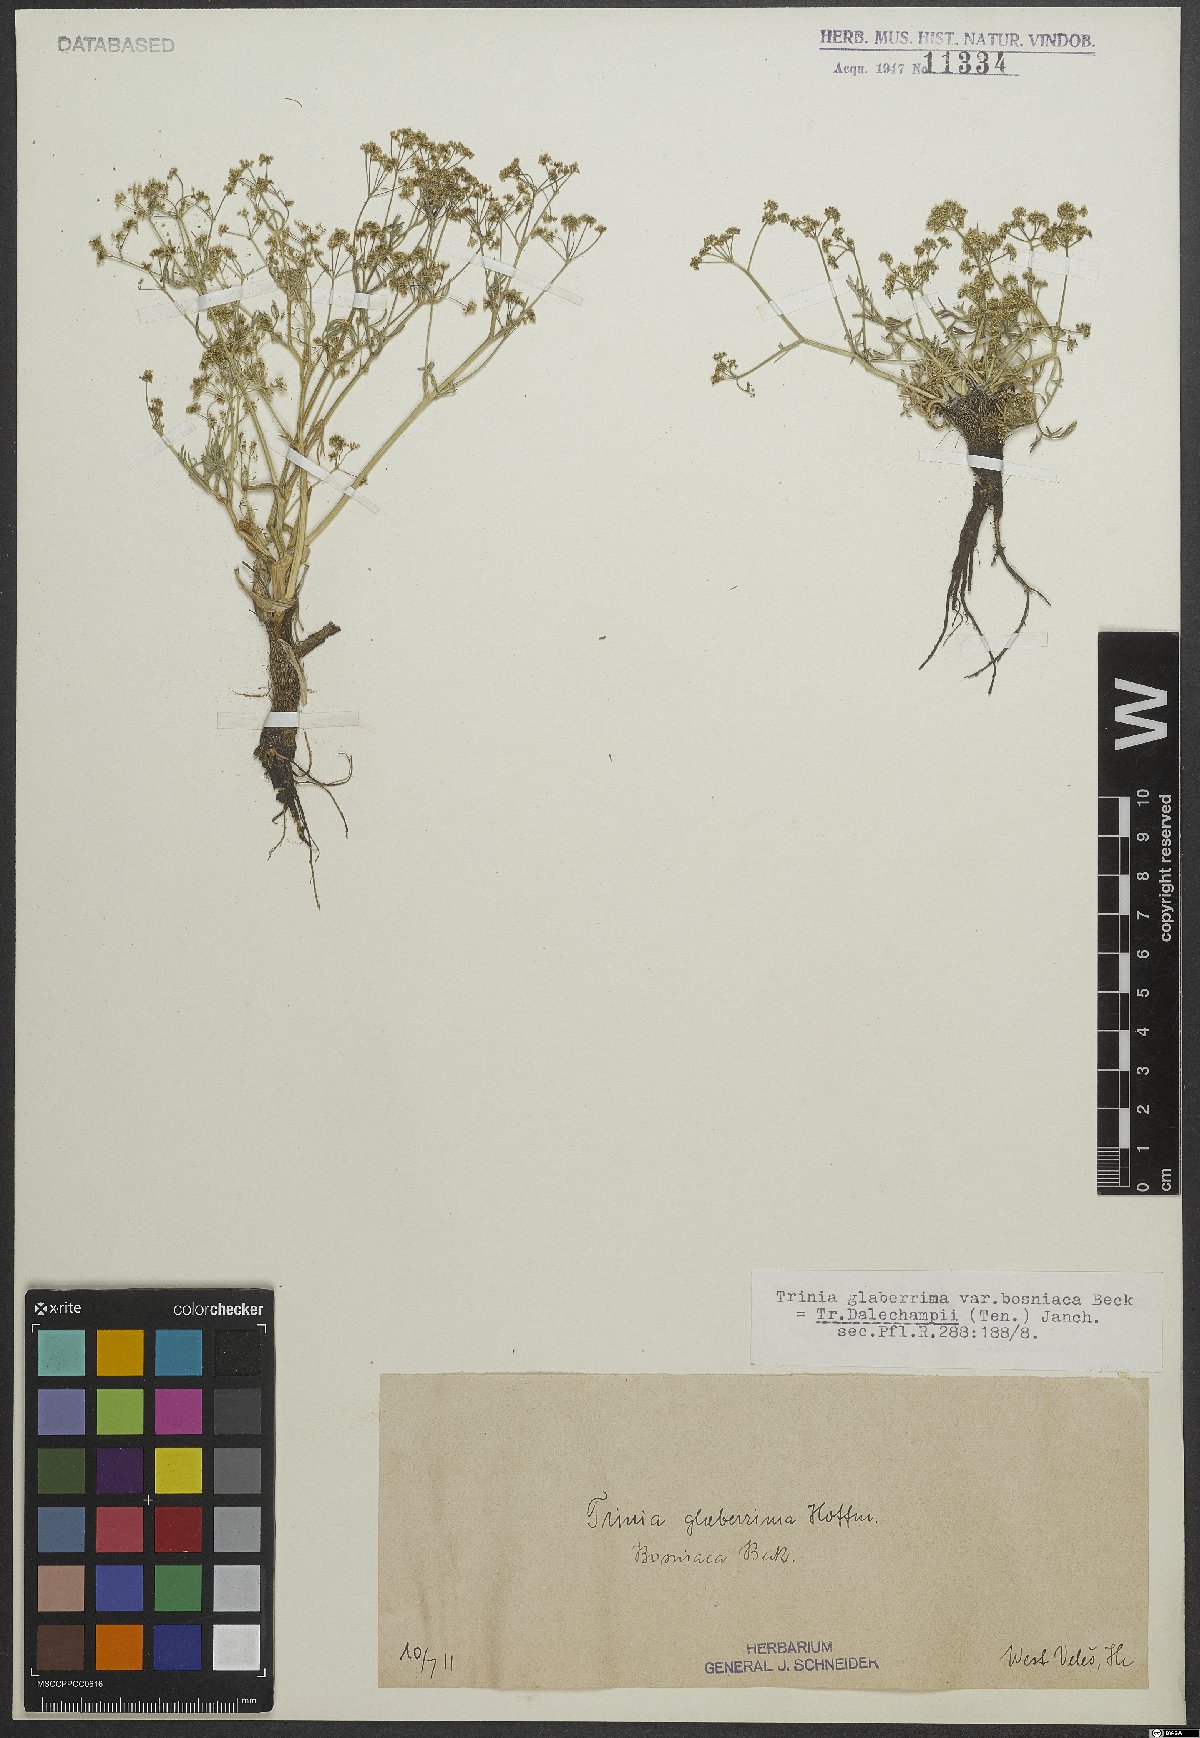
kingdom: Plantae
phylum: Tracheophyta
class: Magnoliopsida
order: Apiales
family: Apiaceae
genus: Trinia
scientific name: Trinia dalechampii
